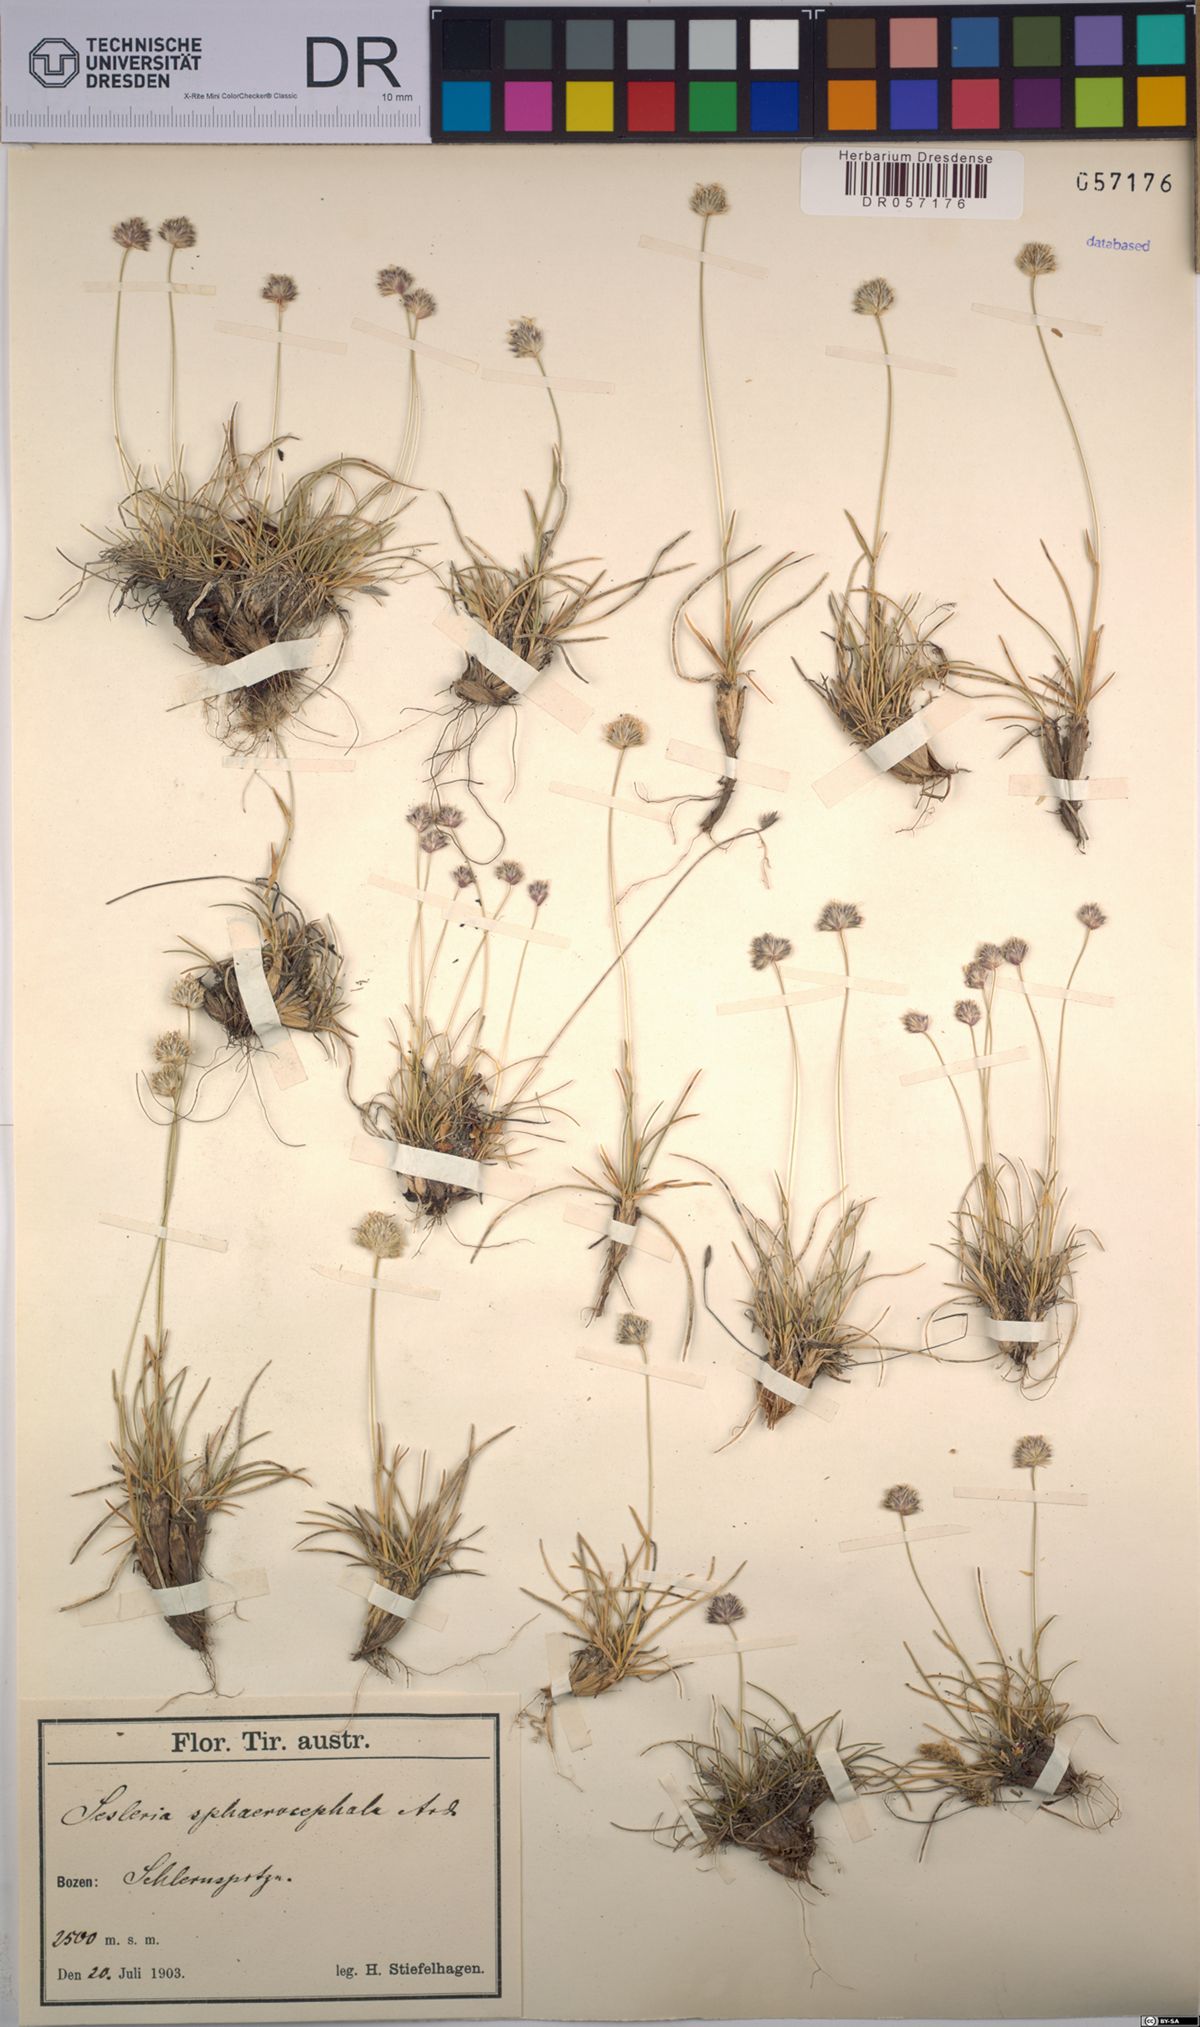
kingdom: Plantae
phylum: Tracheophyta
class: Liliopsida
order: Poales
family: Poaceae
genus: Sesleriella
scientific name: Sesleriella sphaerocephala
